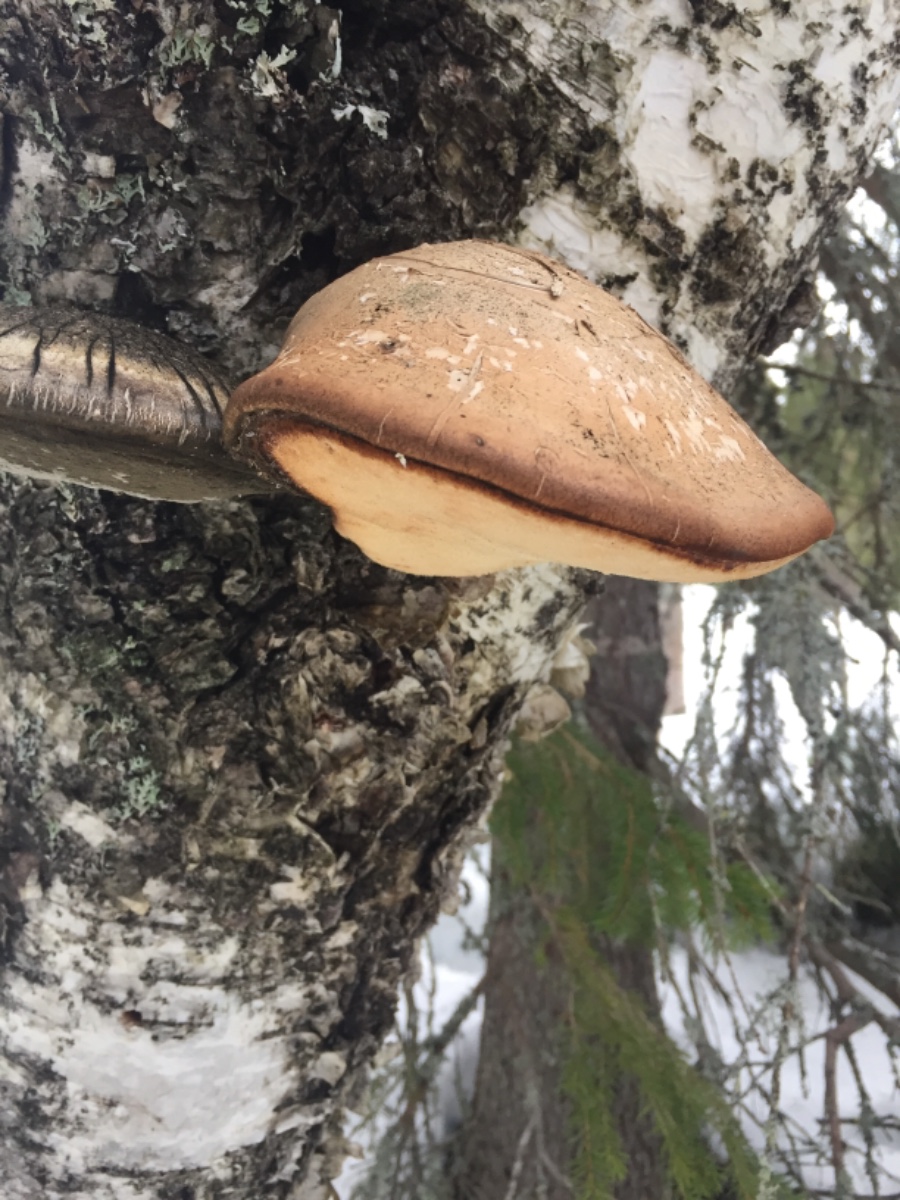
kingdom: Fungi
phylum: Basidiomycota
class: Agaricomycetes
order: Polyporales
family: Fomitopsidaceae
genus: Fomitopsis
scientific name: Fomitopsis betulina
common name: birkeporesvamp
